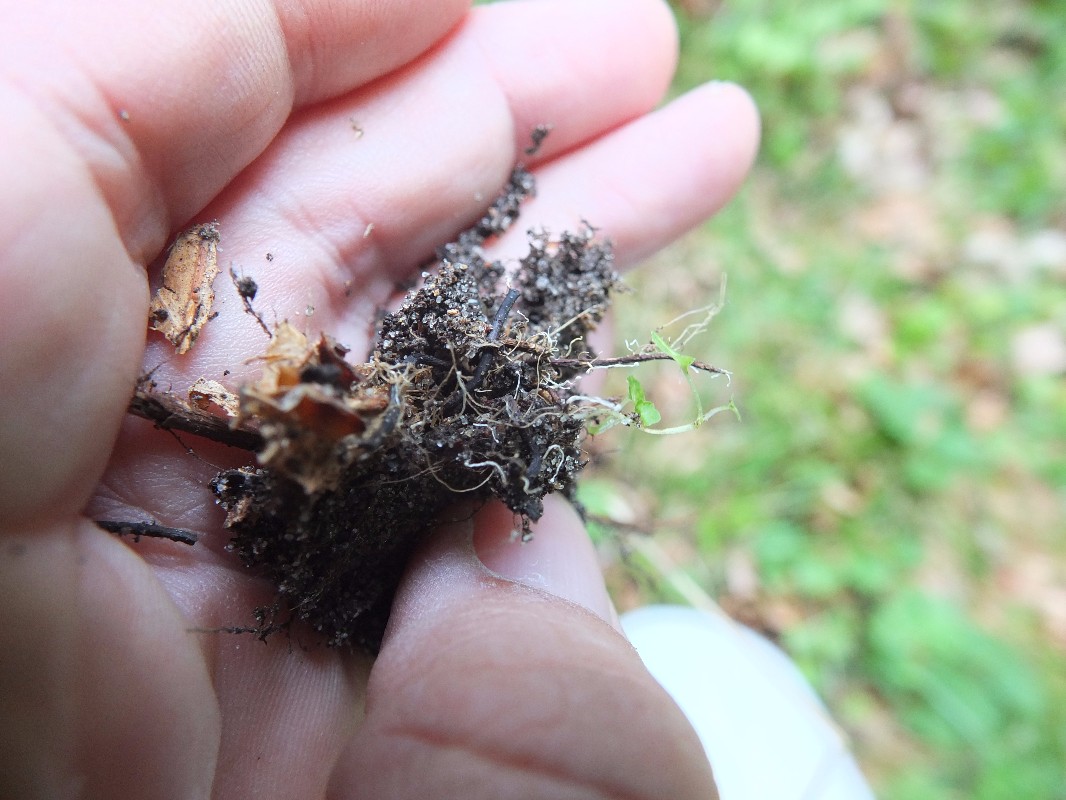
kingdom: Fungi
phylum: Ascomycota
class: Sordariomycetes
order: Hypocreales
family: Ophiocordycipitaceae
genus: Ophiocordyceps
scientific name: Ophiocordyceps entomorrhiza
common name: grå snyltekølle
